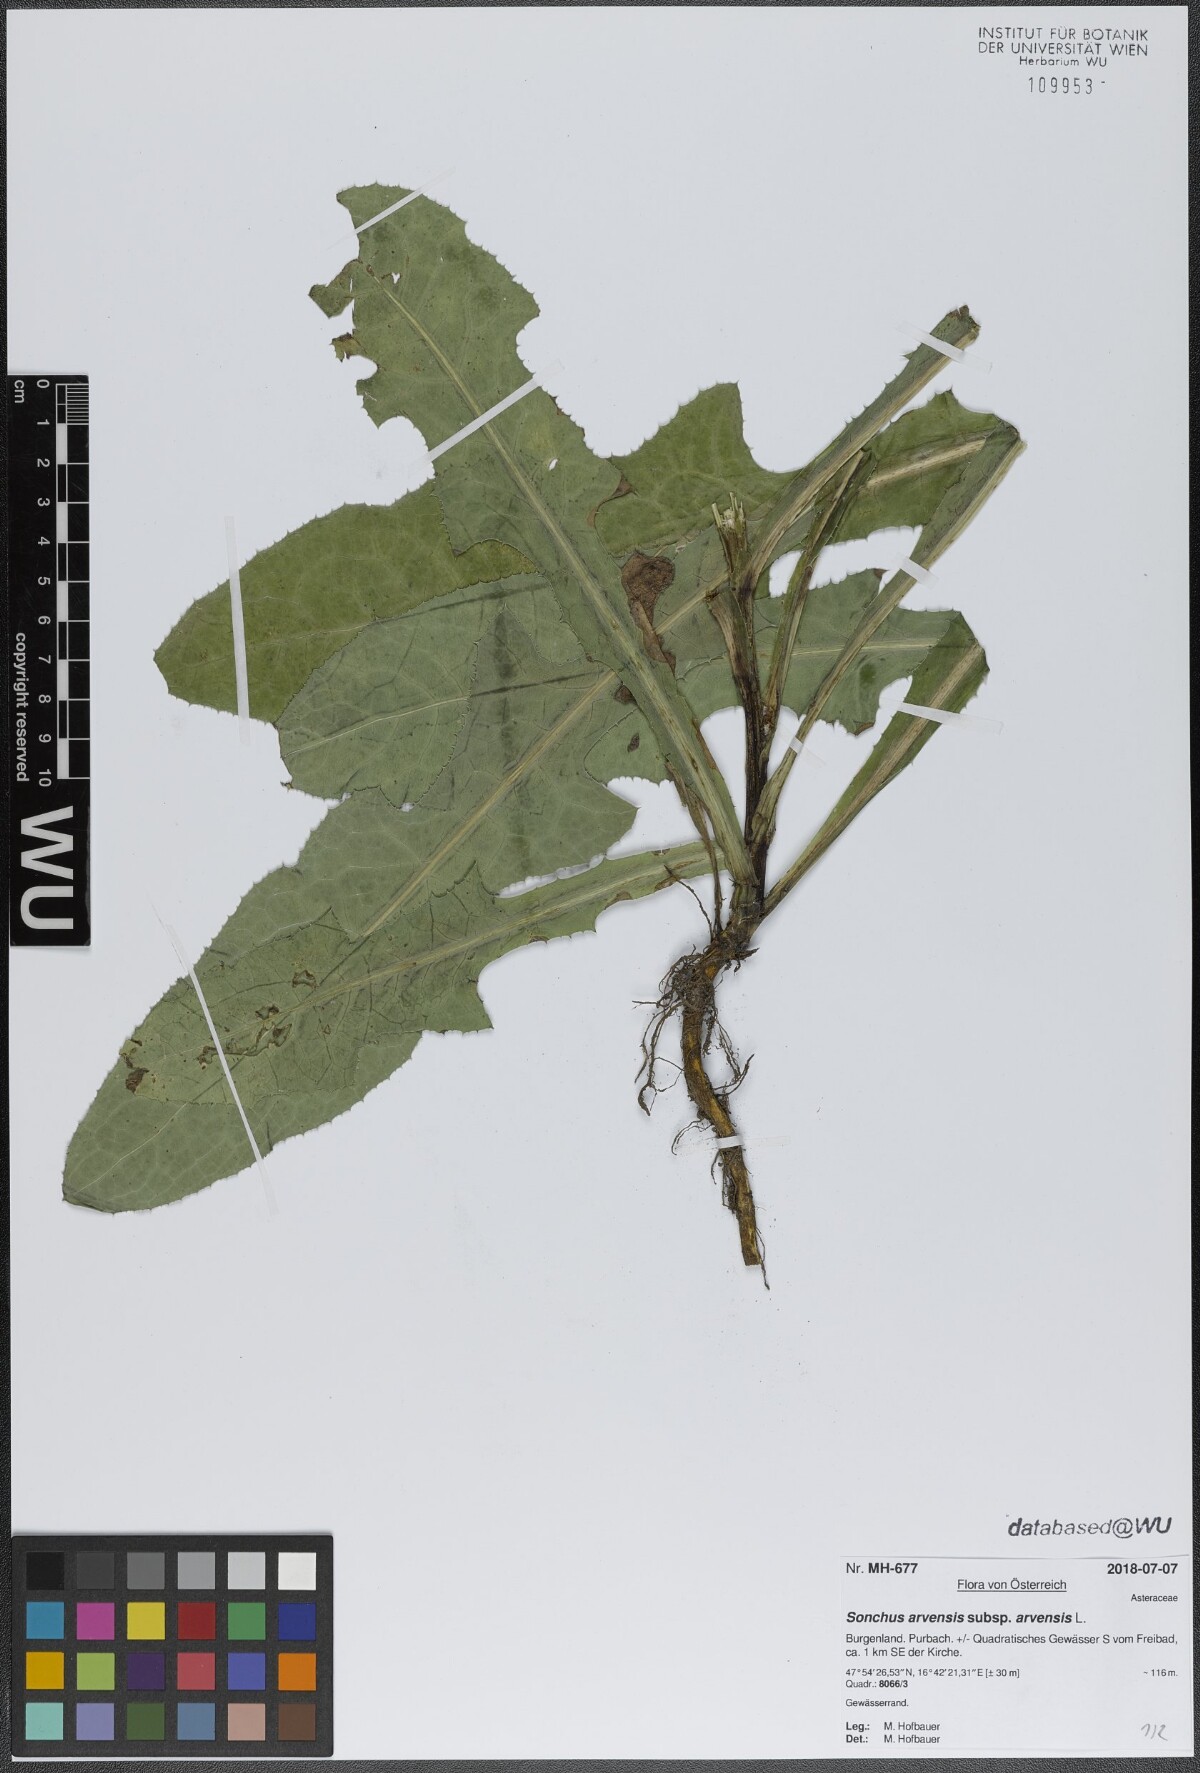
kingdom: Plantae
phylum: Tracheophyta
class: Magnoliopsida
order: Asterales
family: Asteraceae
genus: Sonchus
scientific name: Sonchus arvensis
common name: Perennial sow-thistle
